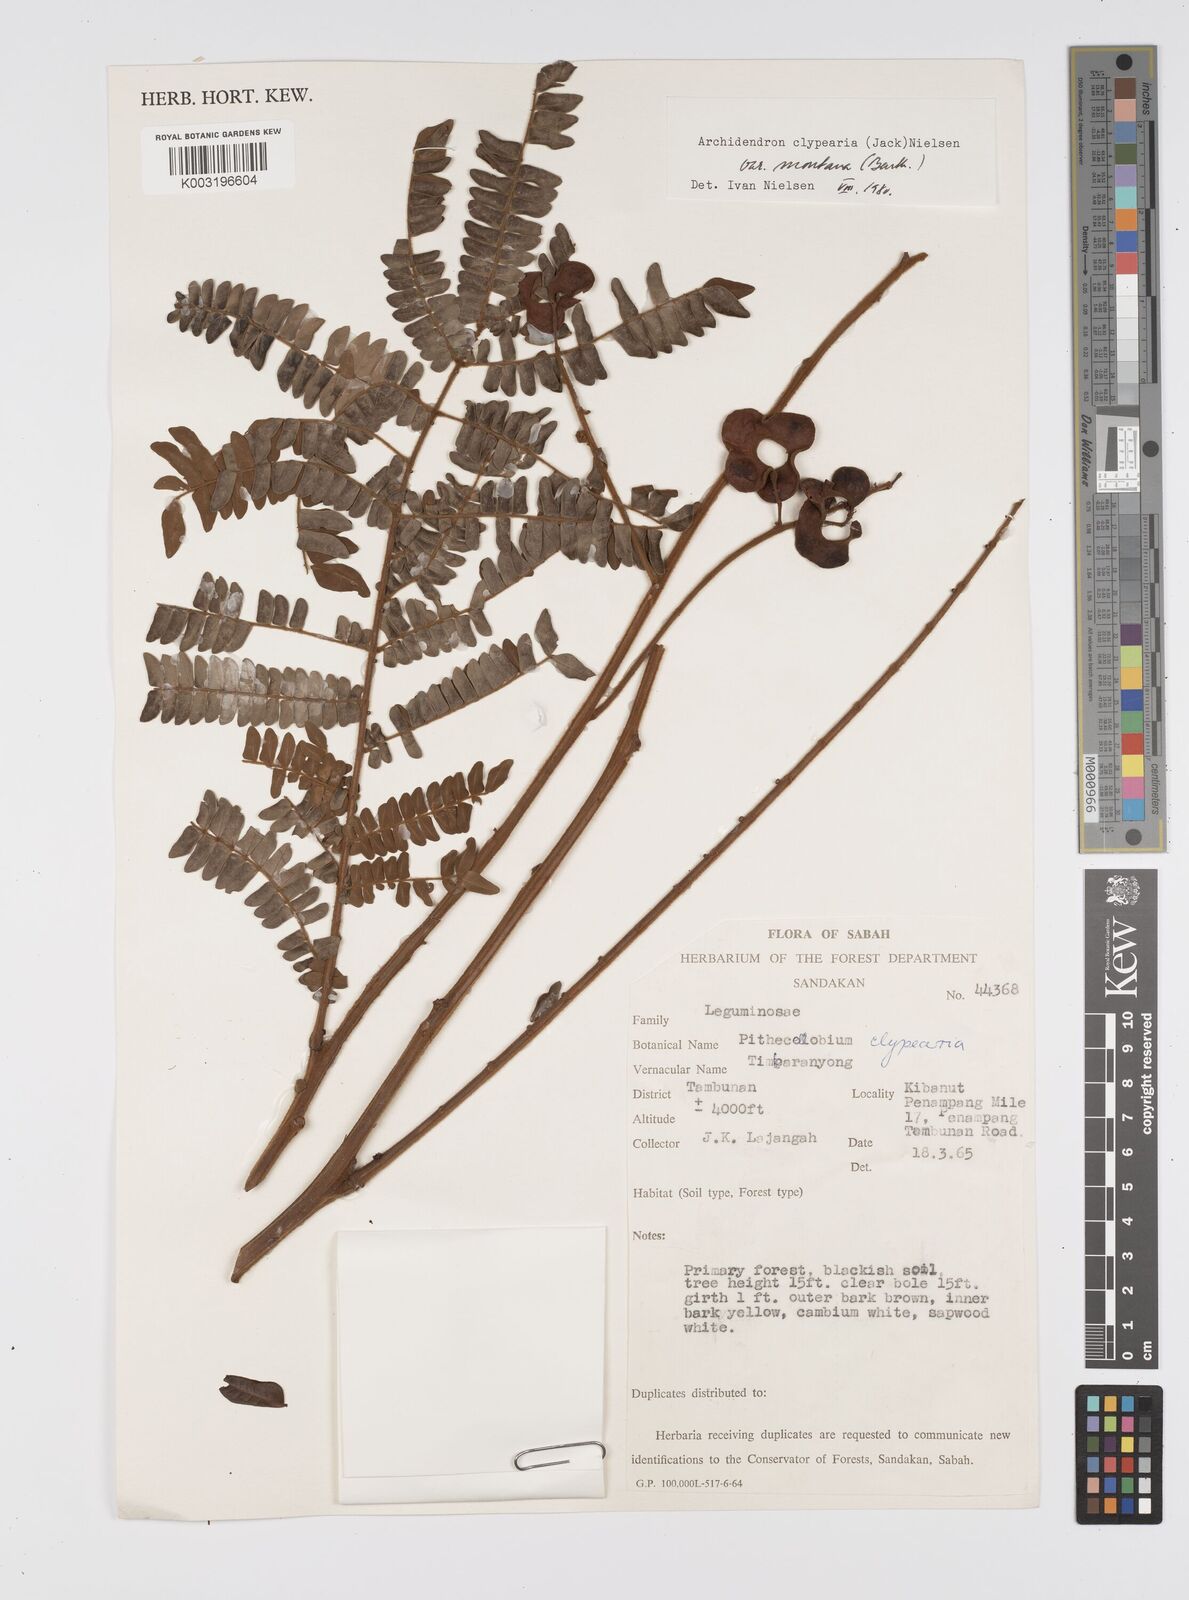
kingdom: Plantae
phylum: Tracheophyta
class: Magnoliopsida
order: Fabales
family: Fabaceae
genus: Archidendron
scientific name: Archidendron clypearia
